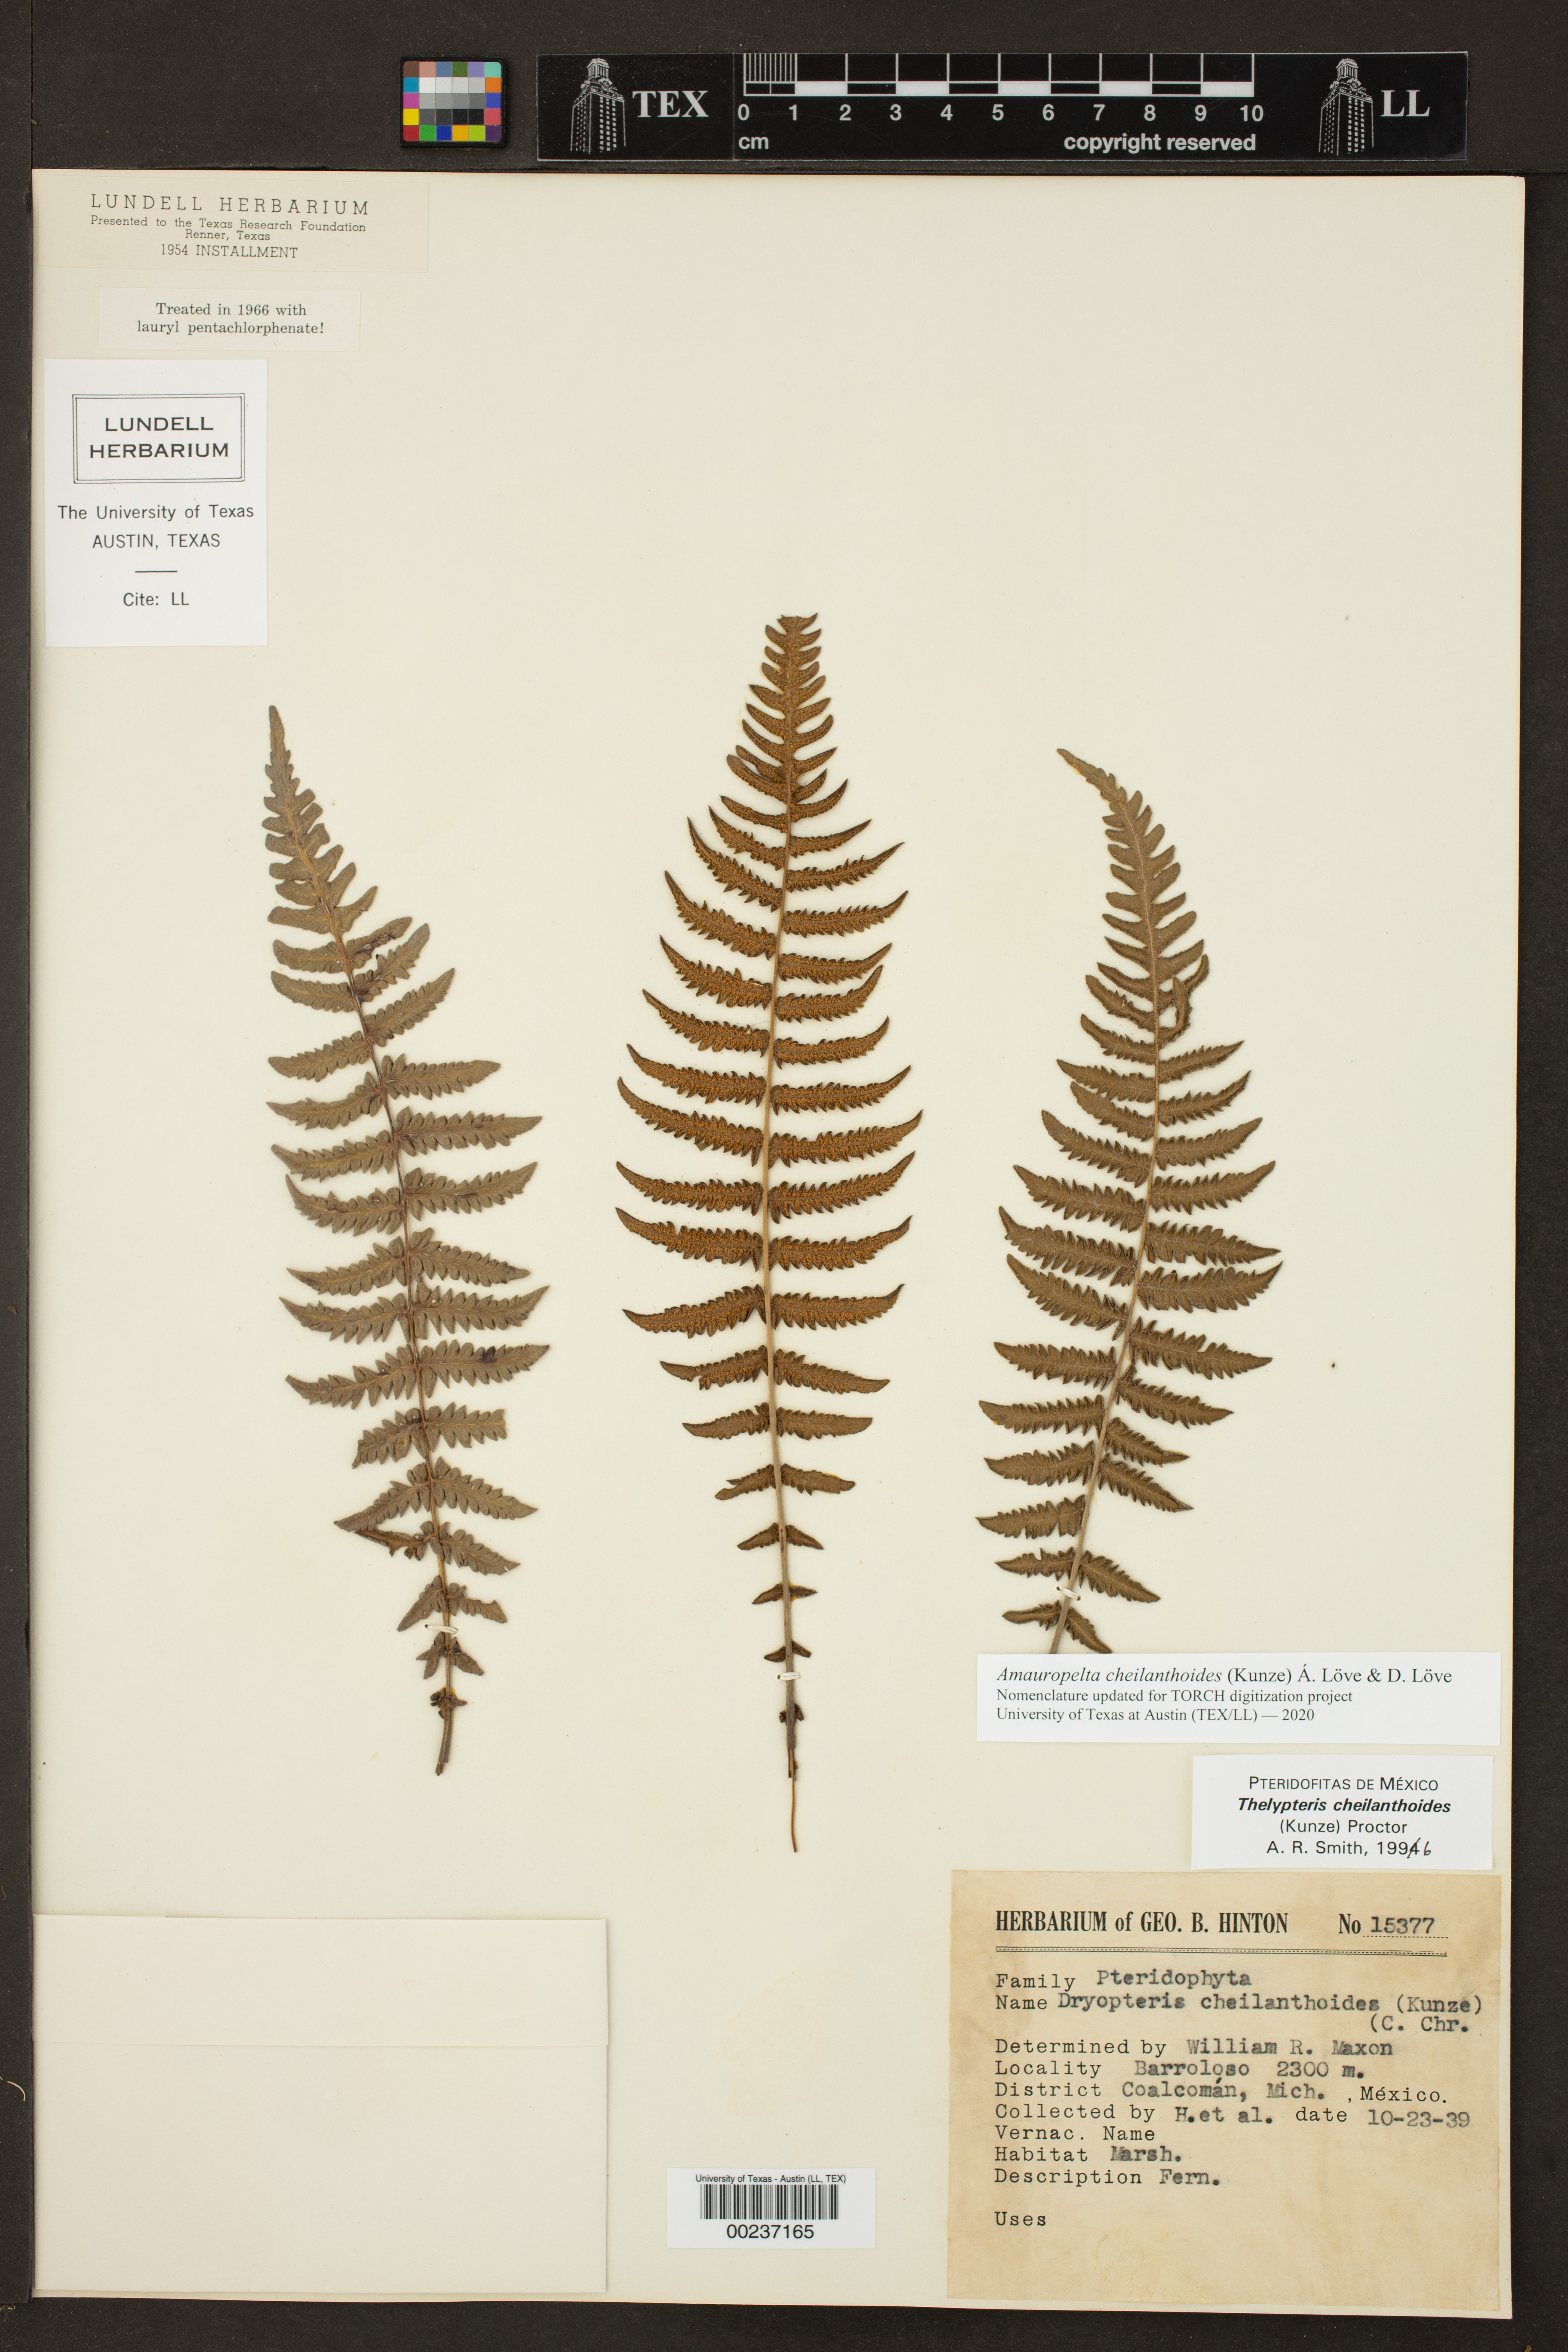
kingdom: Plantae
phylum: Tracheophyta
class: Polypodiopsida
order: Polypodiales
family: Thelypteridaceae
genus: Amauropelta
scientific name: Amauropelta cheilanthoides
